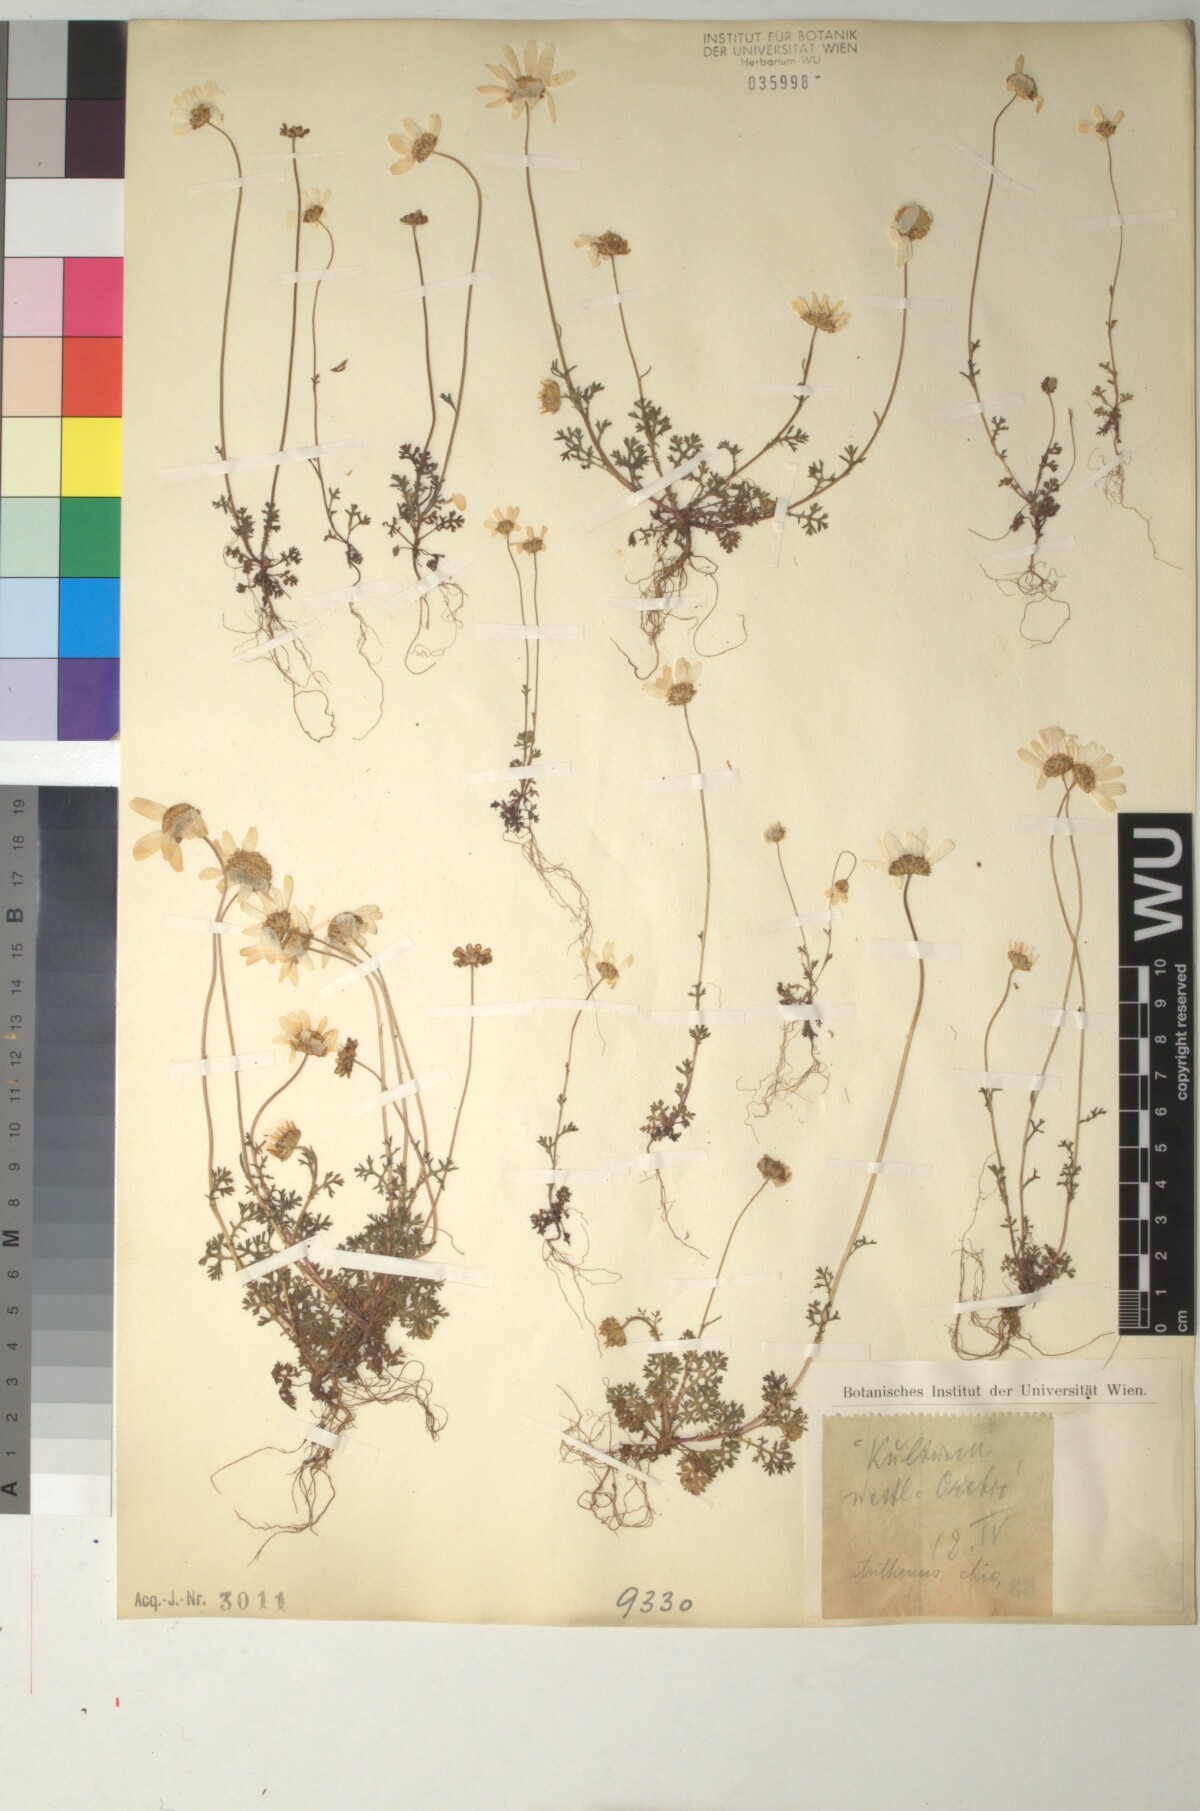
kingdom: Plantae
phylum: Tracheophyta
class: Magnoliopsida
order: Asterales
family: Asteraceae
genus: Anthemis
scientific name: Anthemis chia
